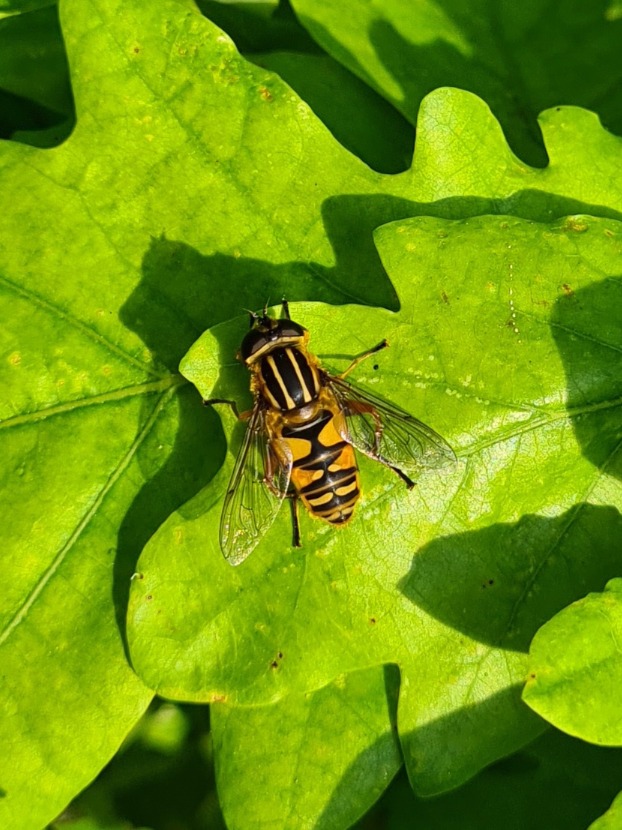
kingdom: Animalia
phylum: Arthropoda
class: Insecta
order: Diptera
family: Syrphidae
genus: Helophilus
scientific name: Helophilus pendulus
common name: Almindelig sumpsvirreflue
